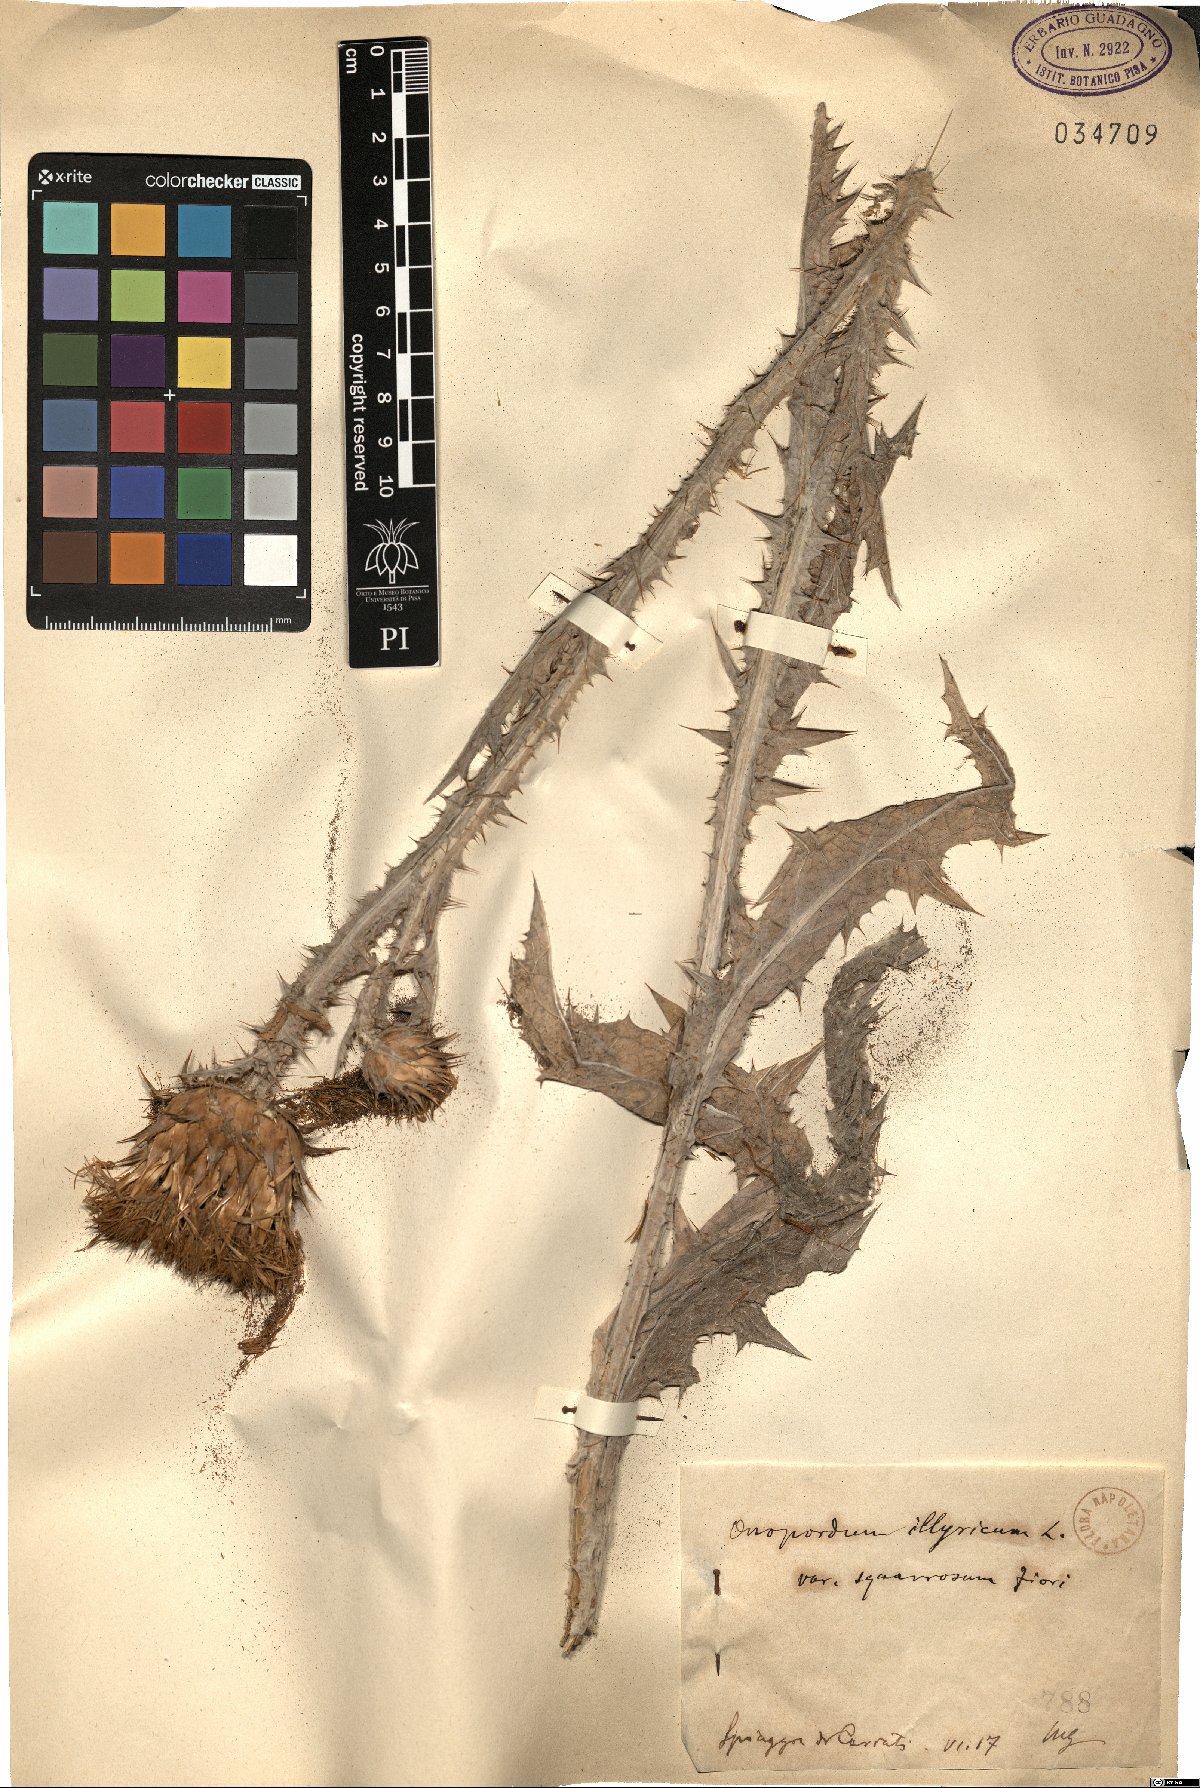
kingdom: Plantae
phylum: Tracheophyta
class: Magnoliopsida
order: Asterales
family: Asteraceae
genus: Onopordum
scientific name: Onopordum illyricum
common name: Illyrian thistle
